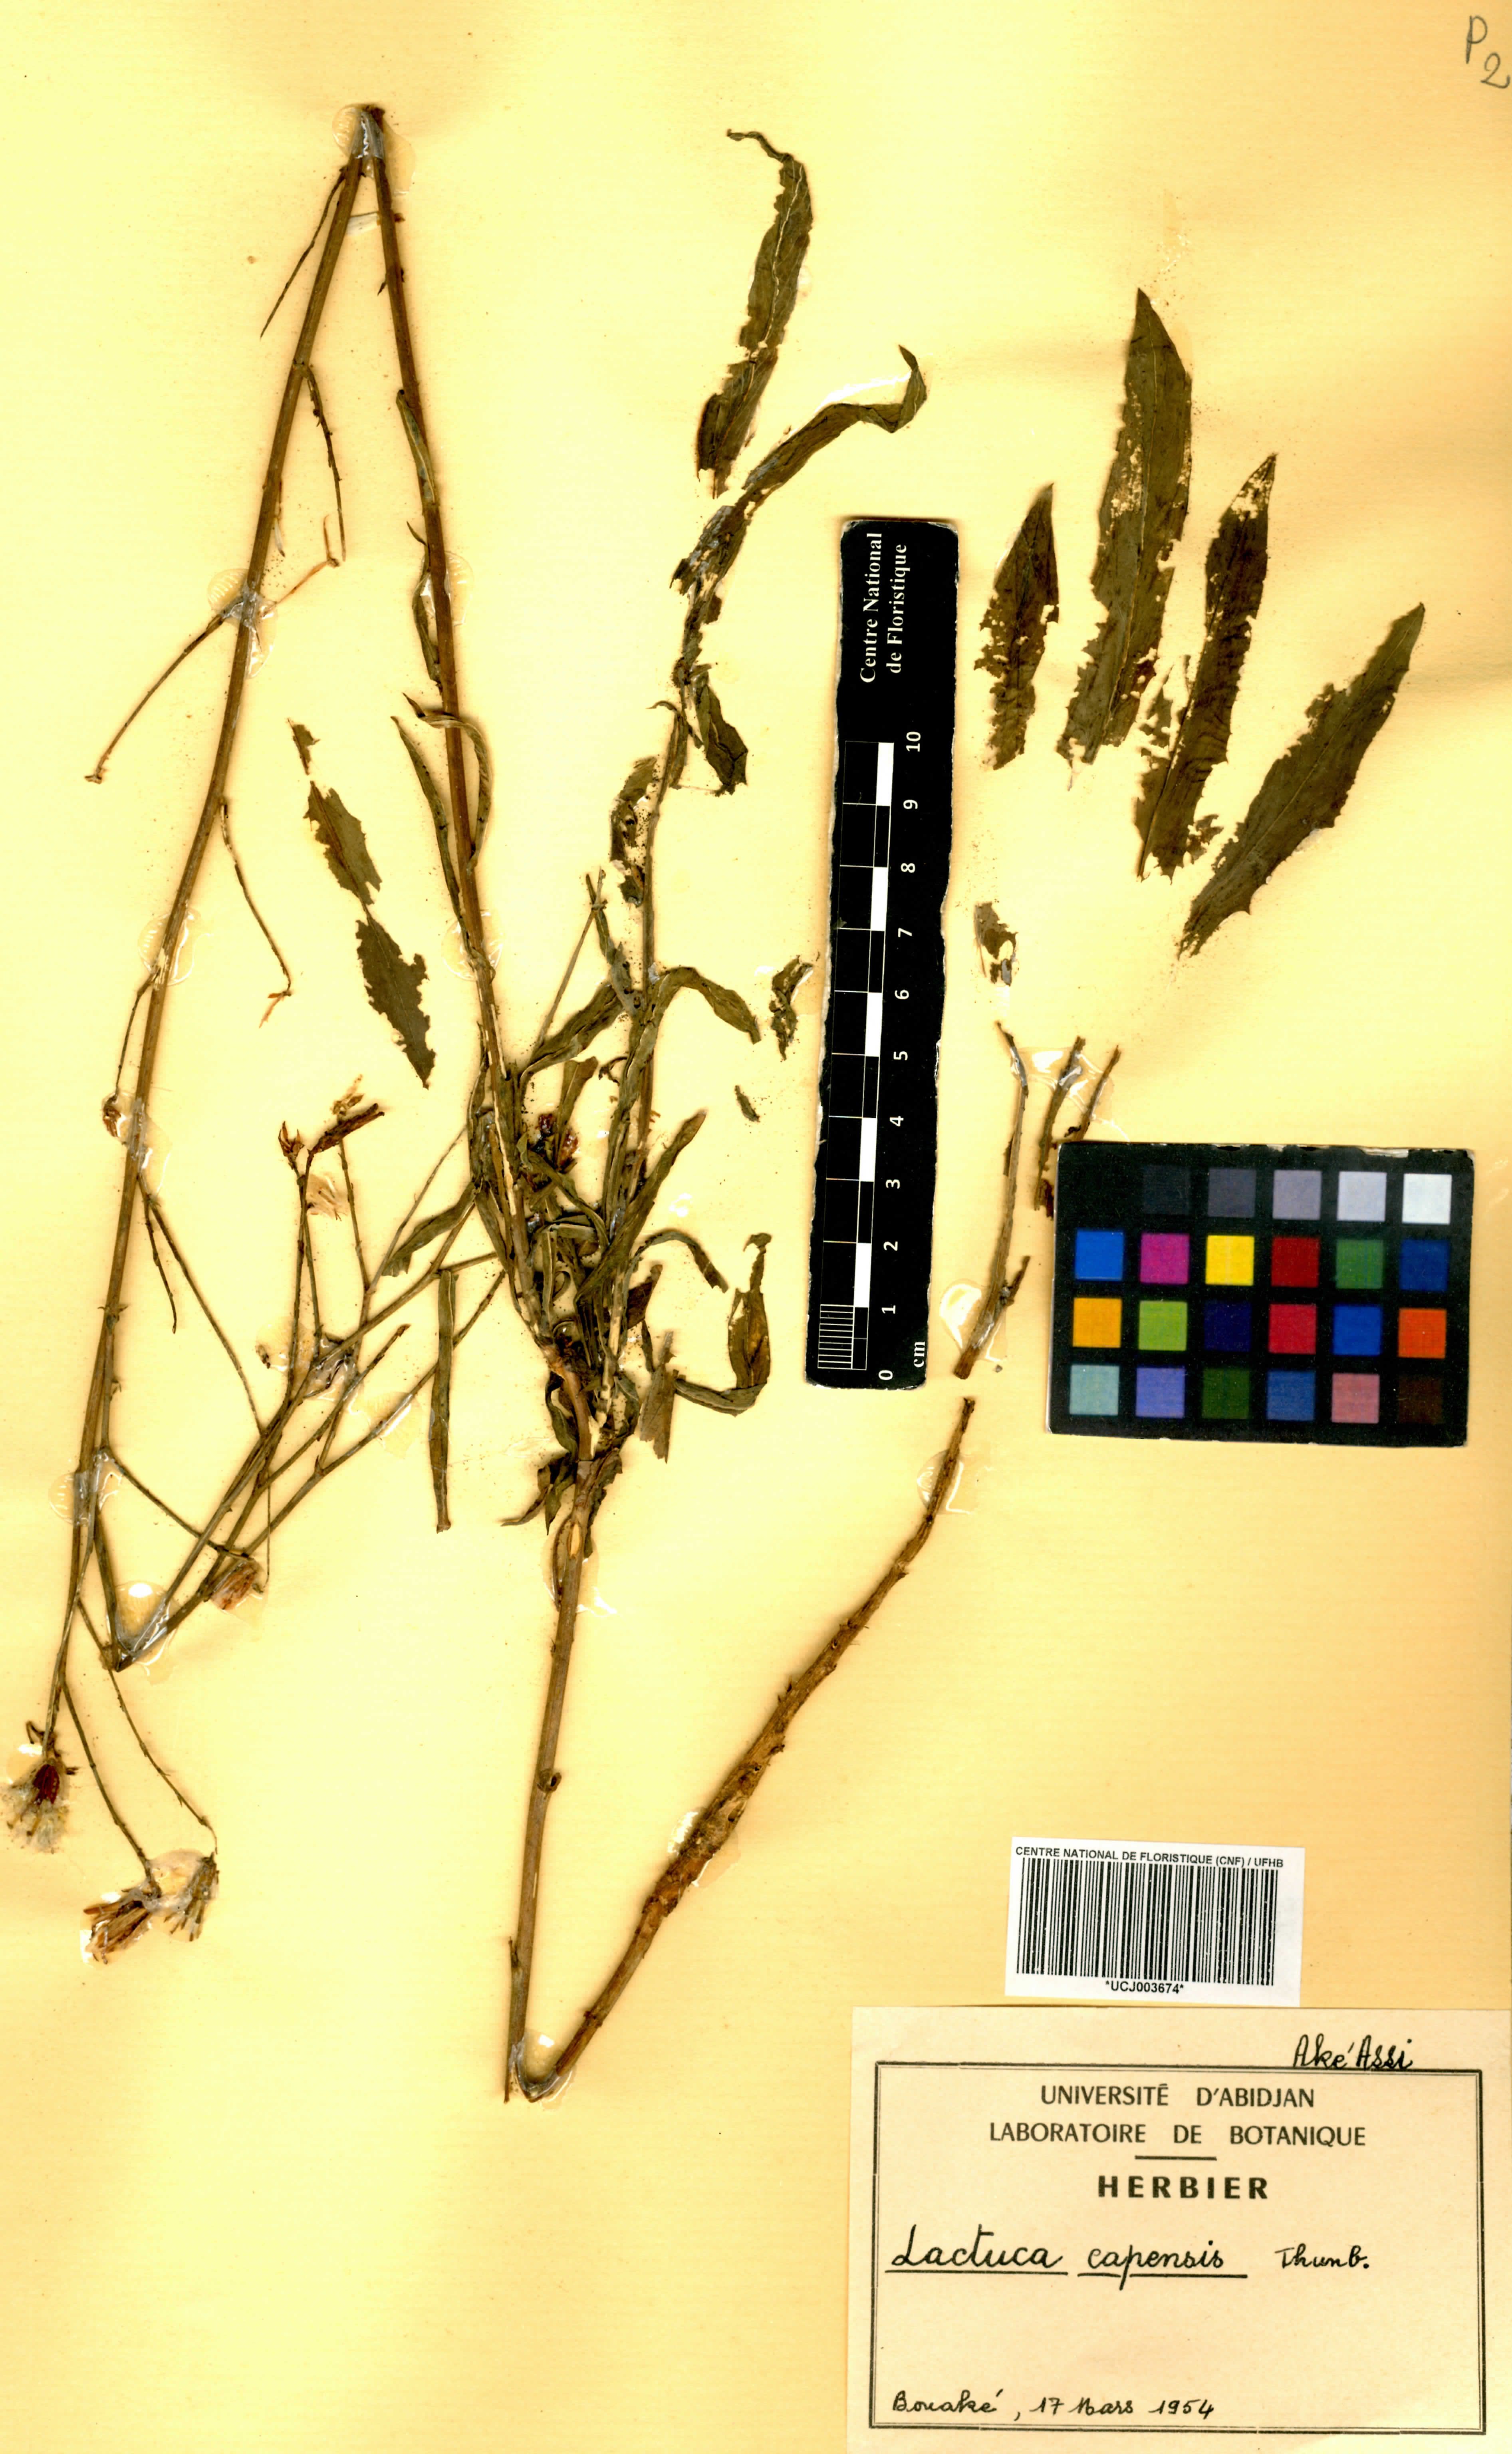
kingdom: Plantae
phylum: Tracheophyta
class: Magnoliopsida
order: Asterales
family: Asteraceae
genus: Lactuca
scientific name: Lactuca inermis
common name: Wild lettuce
